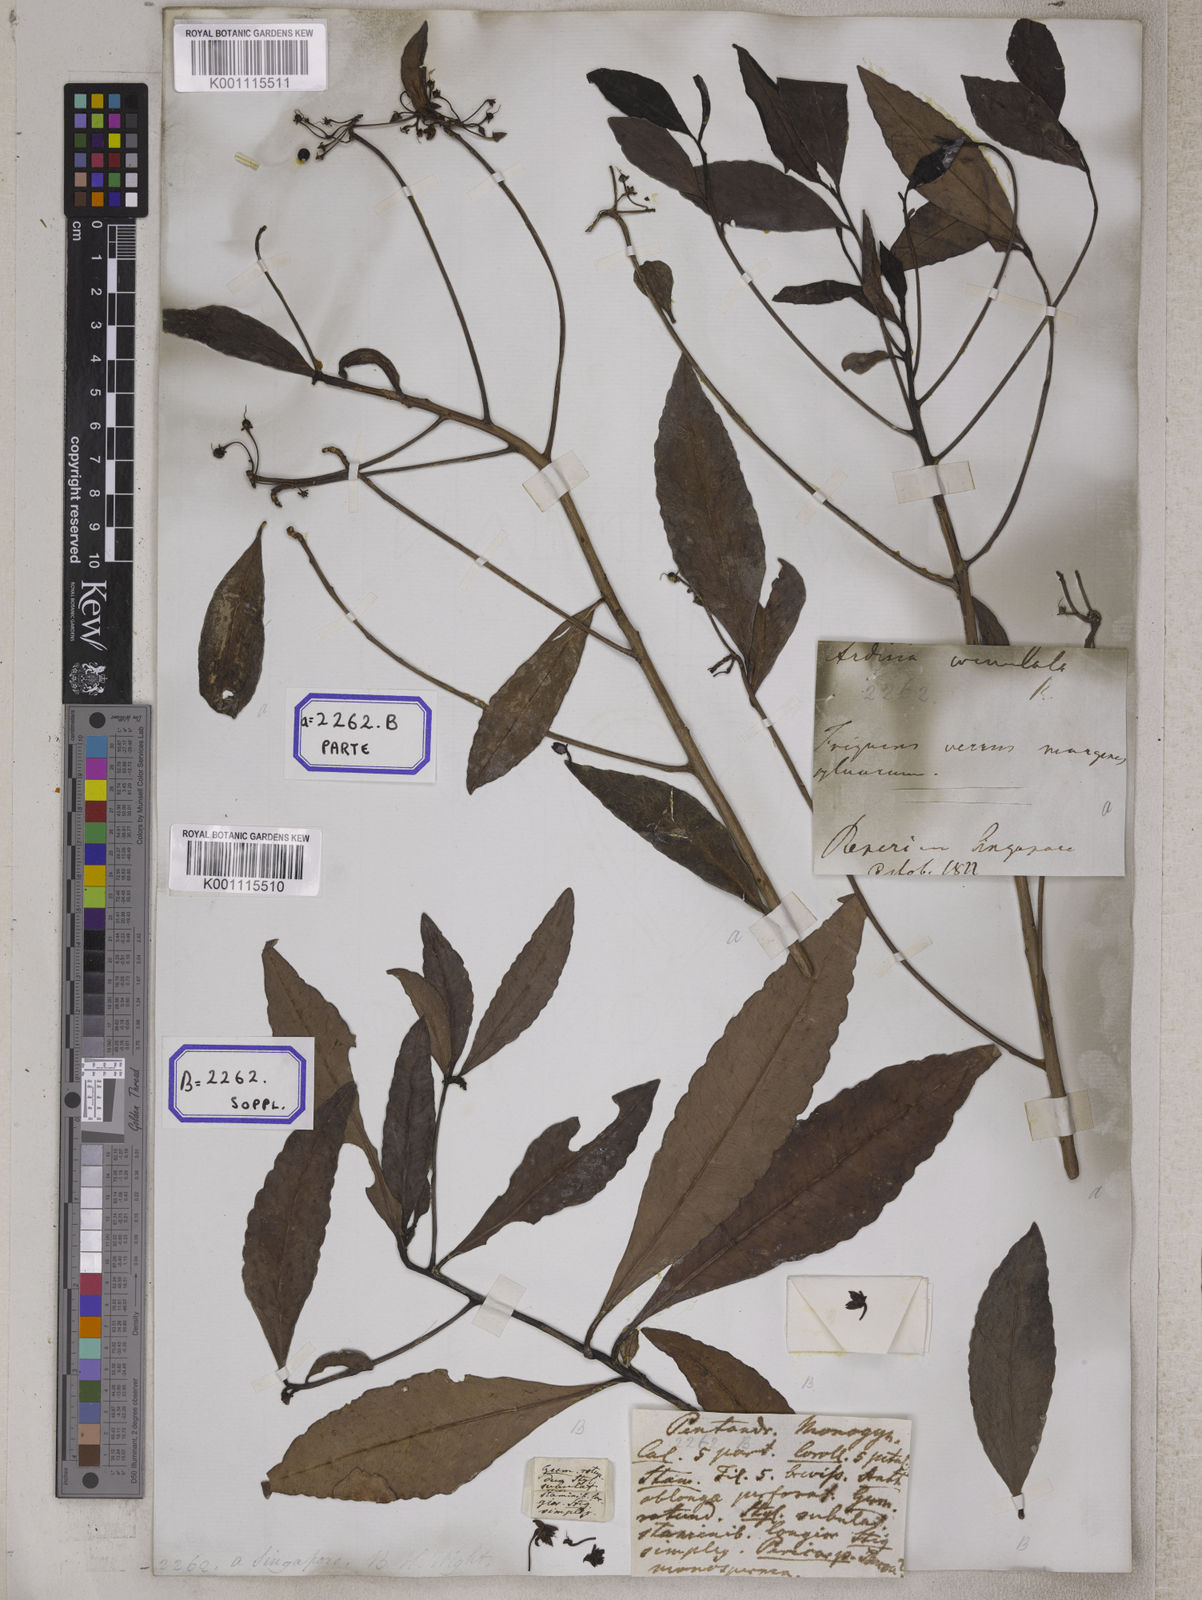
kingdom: Plantae
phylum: Tracheophyta
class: Magnoliopsida
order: Ericales
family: Primulaceae
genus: Ardisia
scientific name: Ardisia
